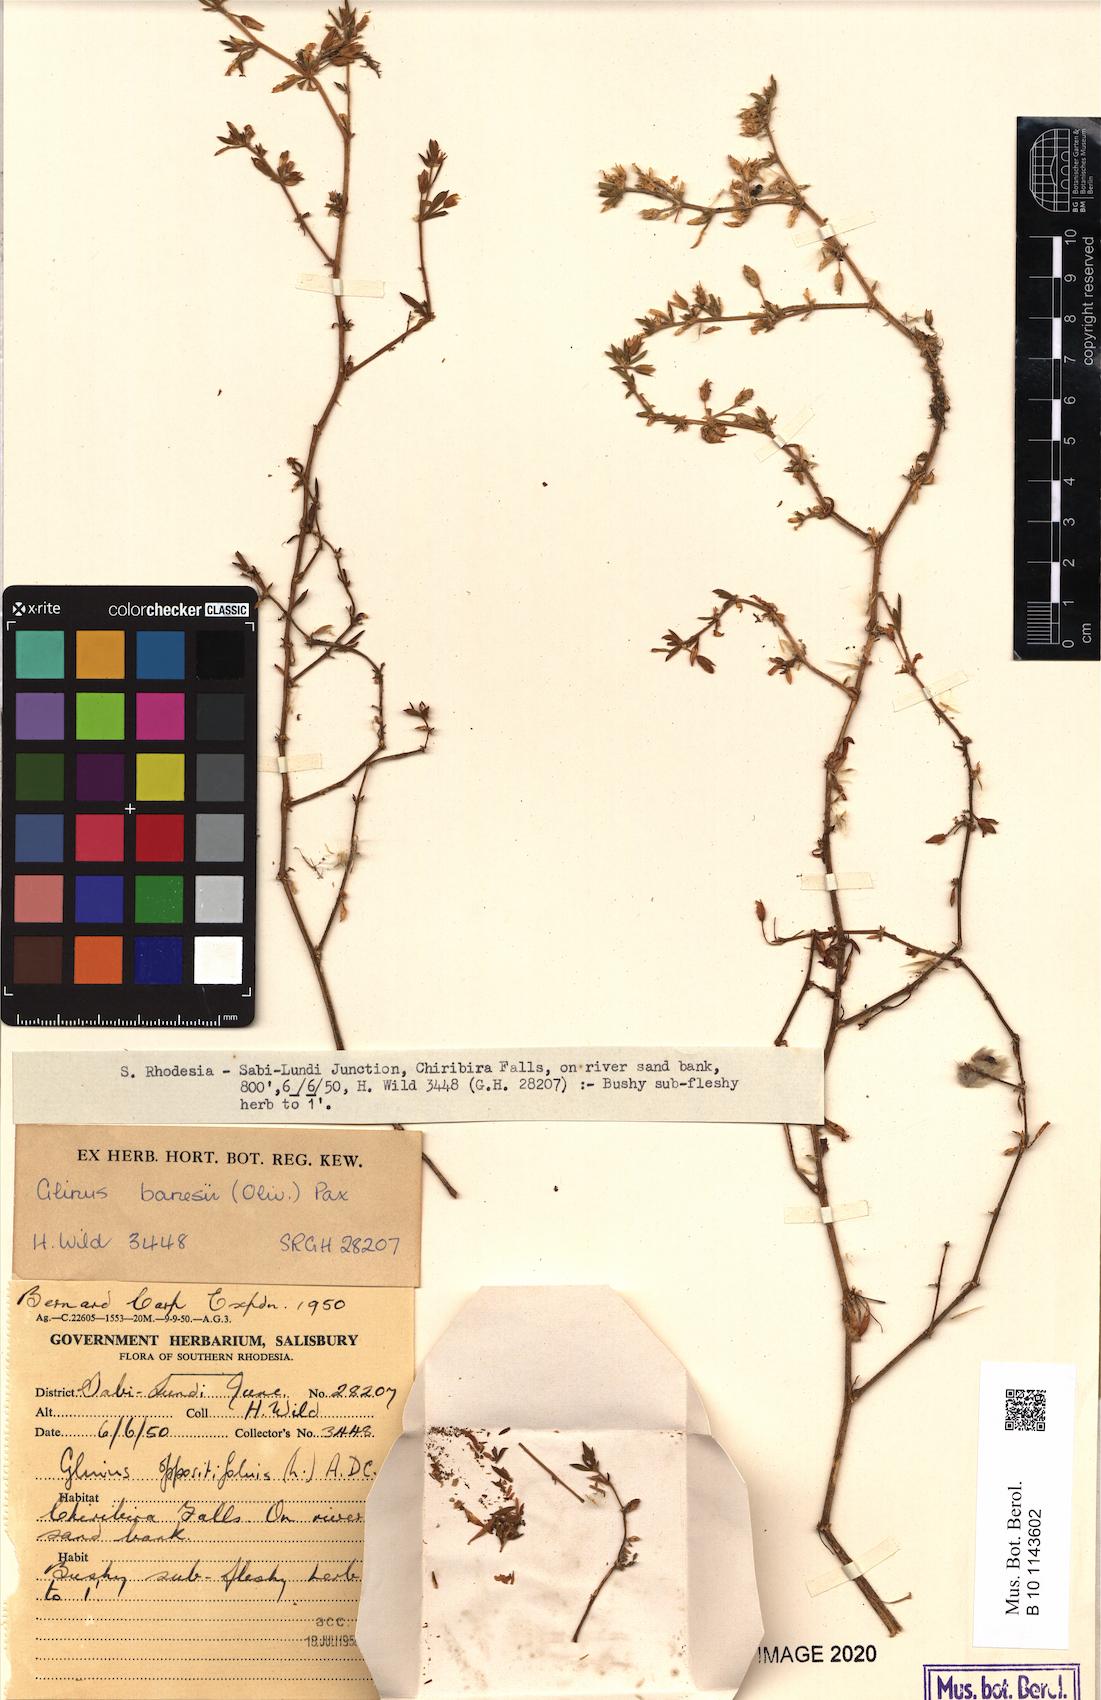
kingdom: Plantae
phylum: Tracheophyta
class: Magnoliopsida
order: Caryophyllales
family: Molluginaceae
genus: Glinus
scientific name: Glinus bainesii
